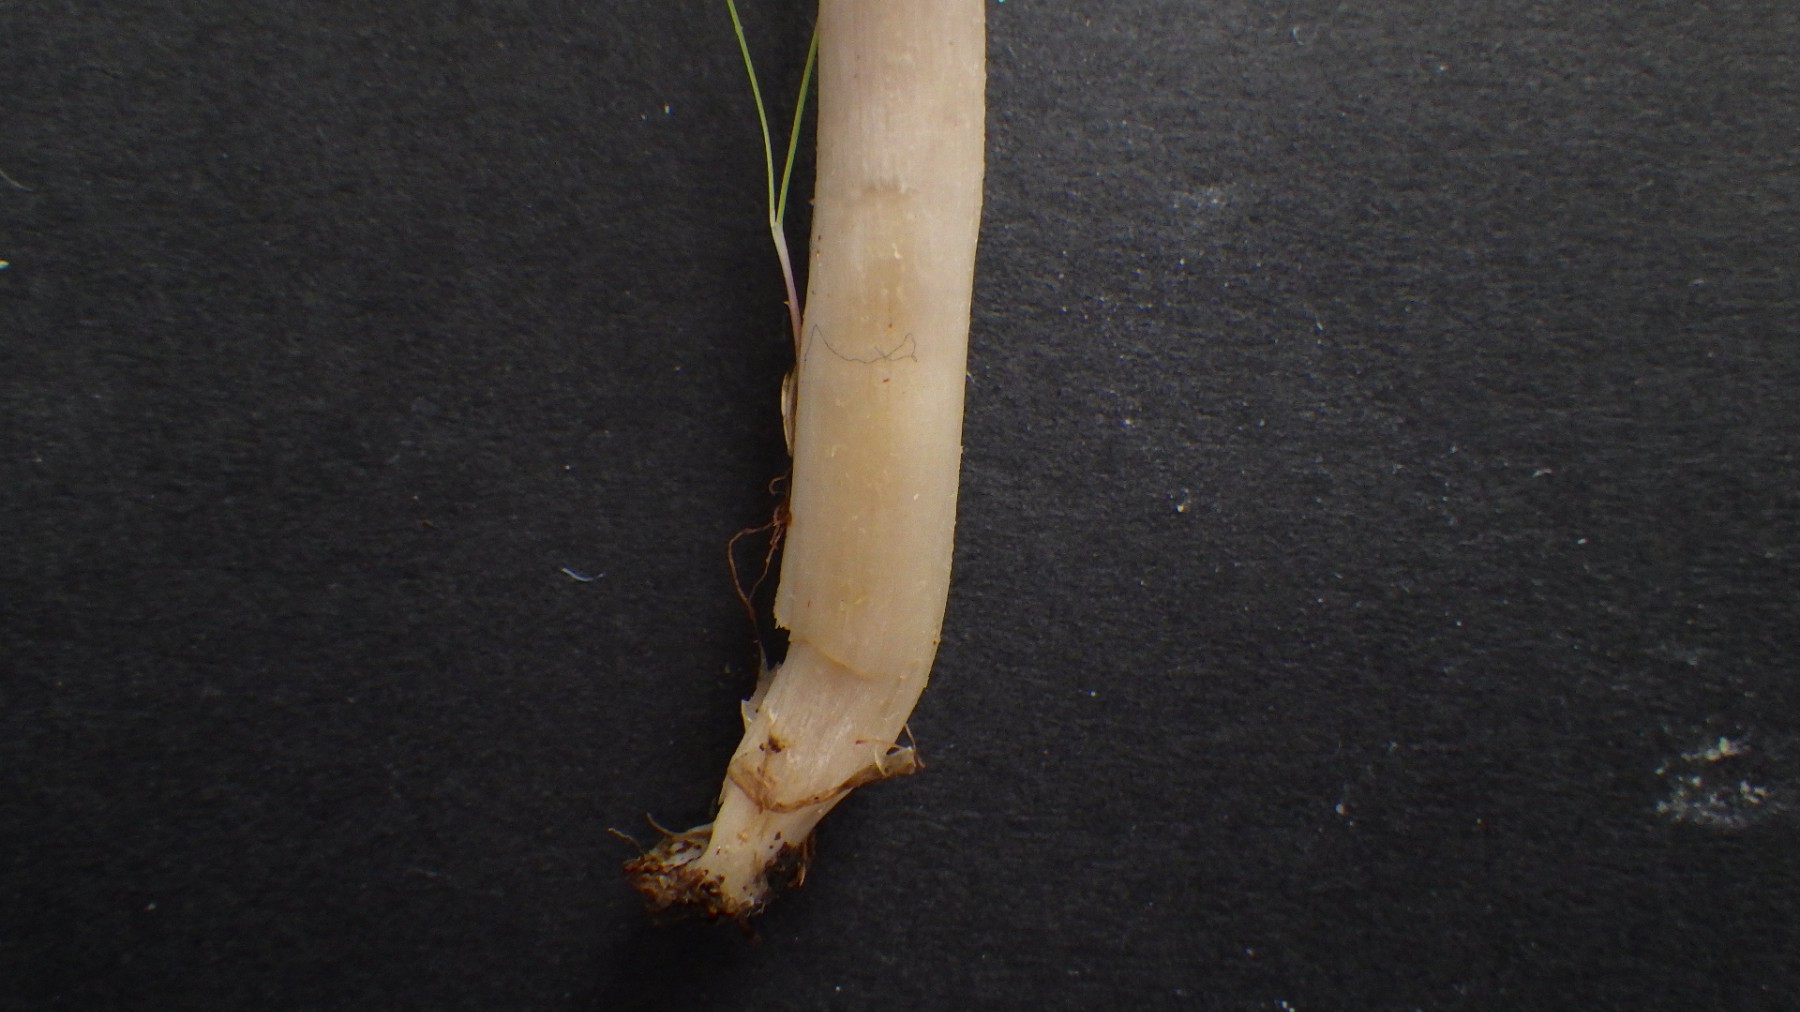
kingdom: Fungi
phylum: Basidiomycota
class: Agaricomycetes
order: Agaricales
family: Hygrophoraceae
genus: Cuphophyllus
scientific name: Cuphophyllus flavipes
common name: gulfodet vokshat
